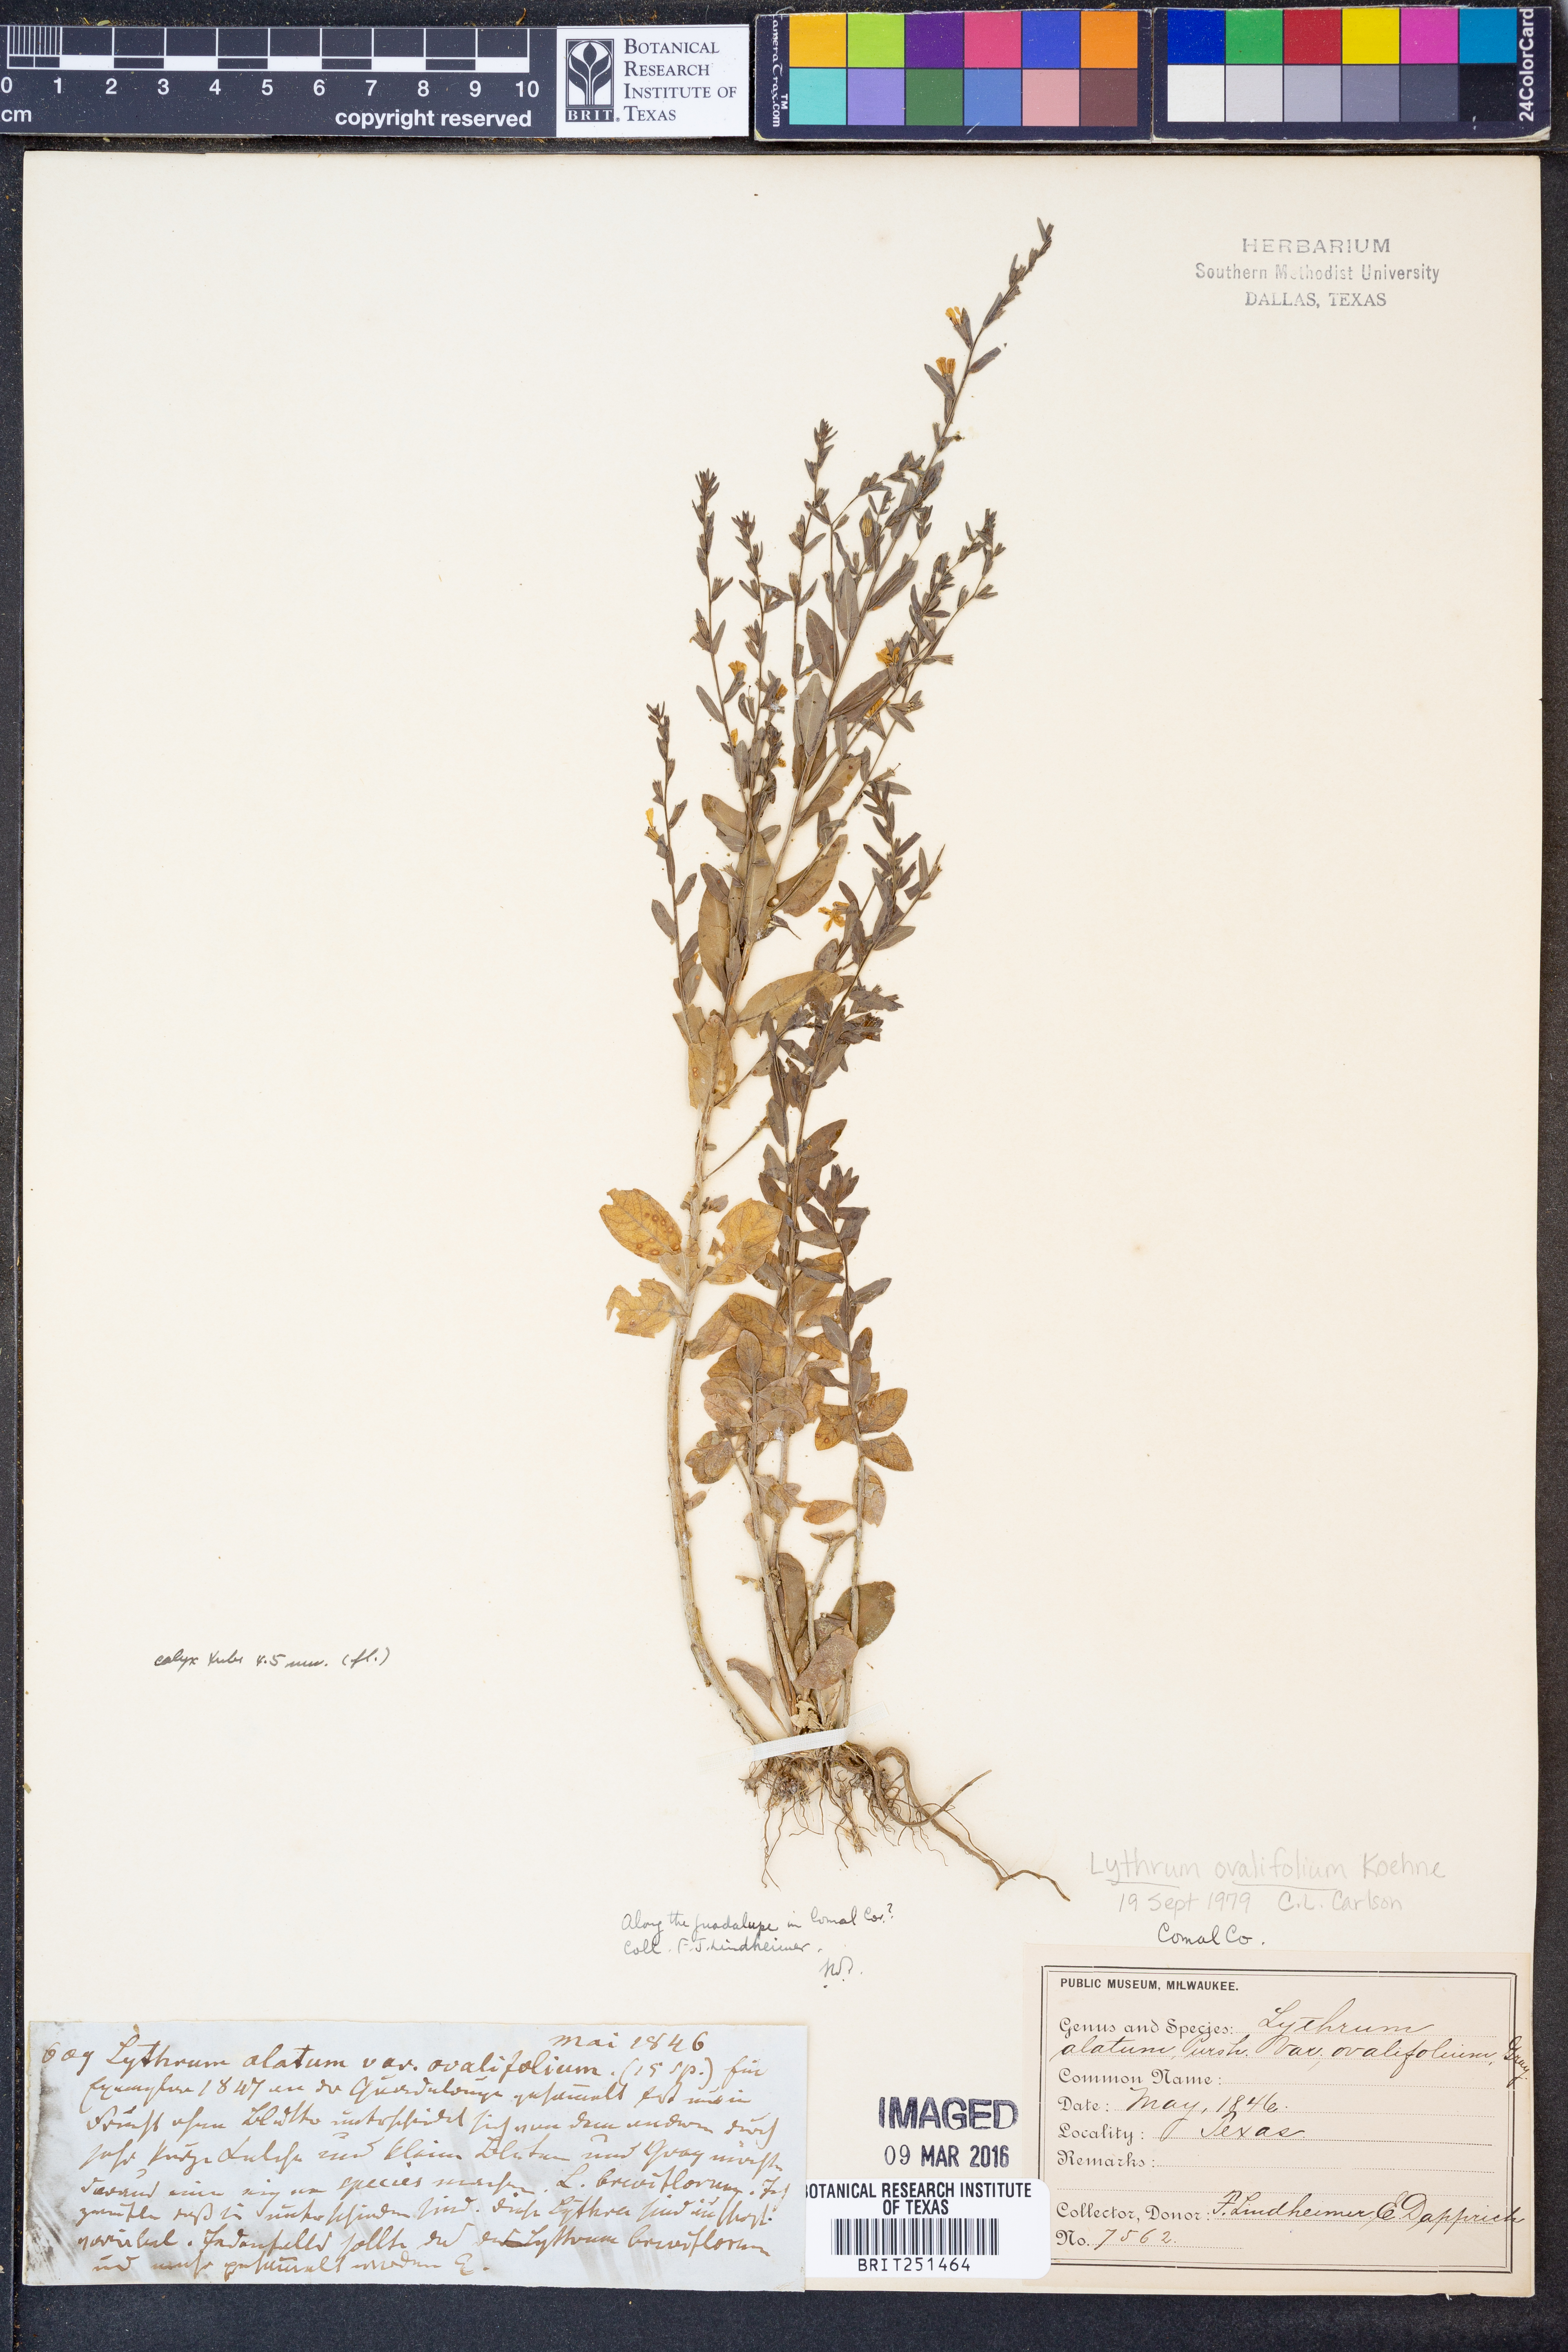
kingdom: Plantae
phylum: Tracheophyta
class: Magnoliopsida
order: Myrtales
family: Lythraceae
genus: Lythrum
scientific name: Lythrum ovalifolium
